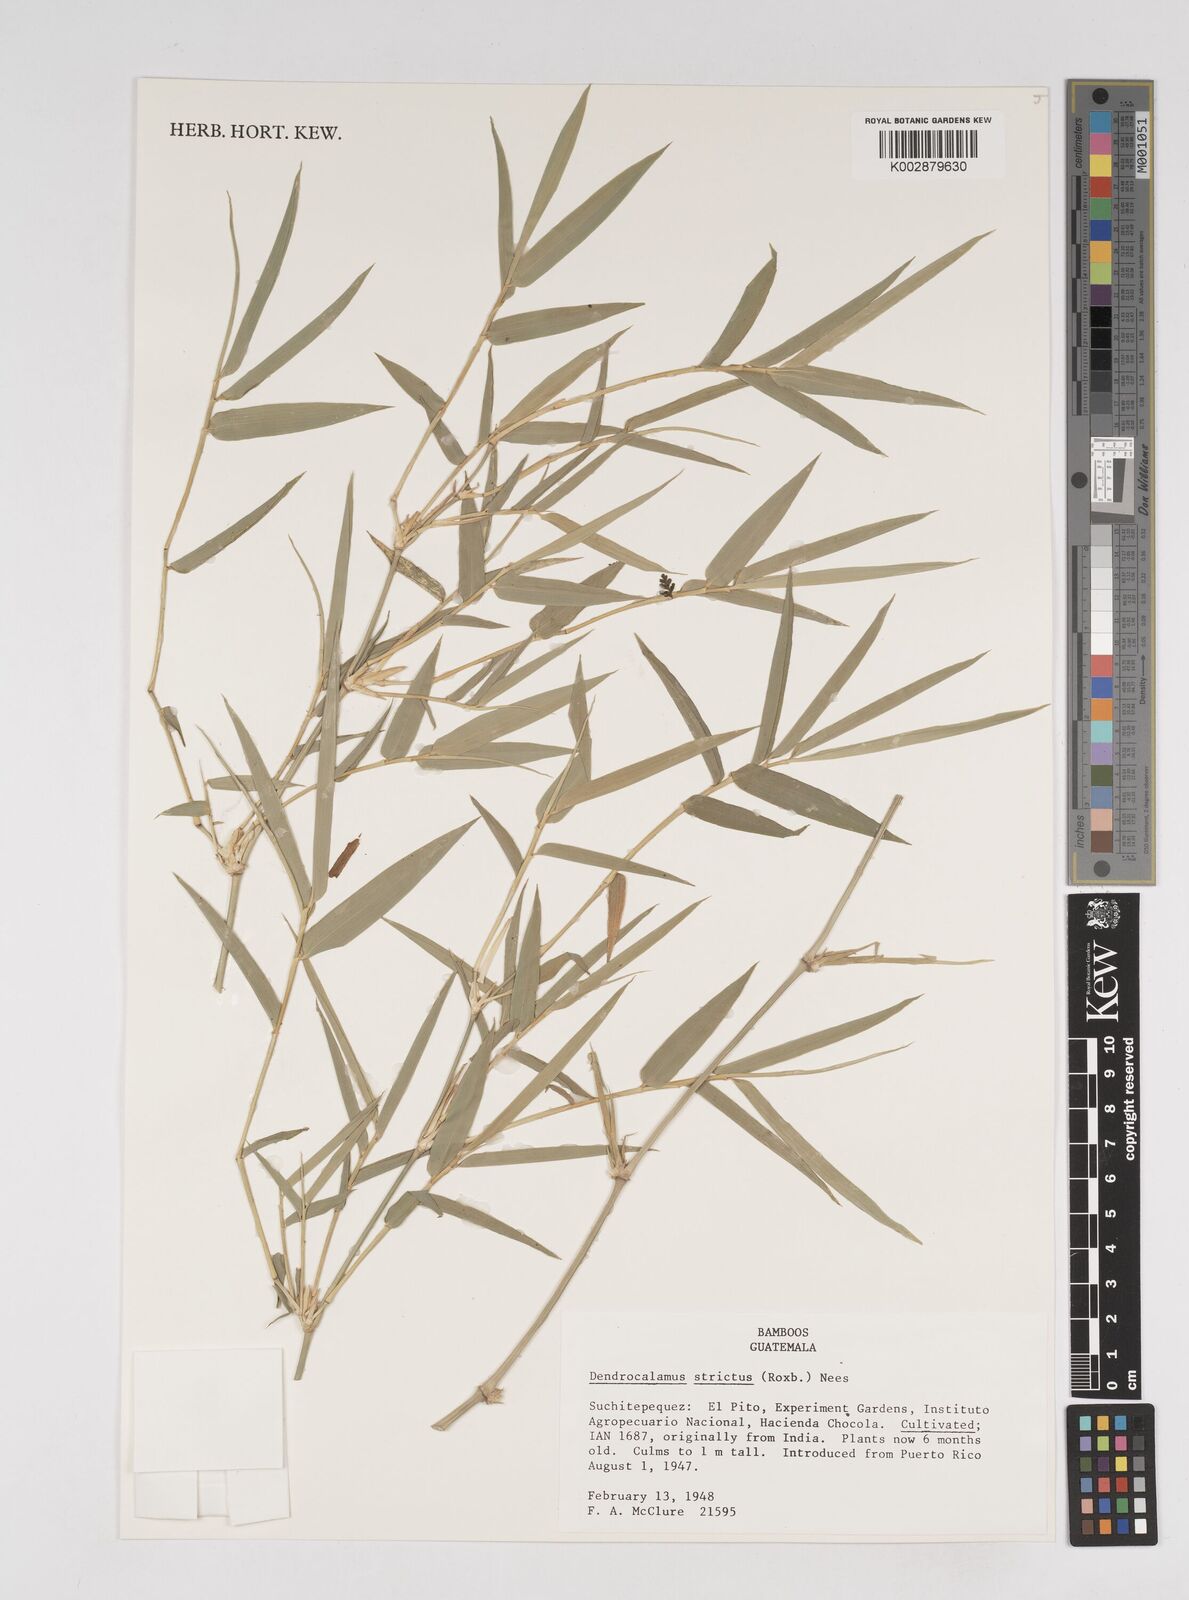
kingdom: Plantae
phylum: Tracheophyta
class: Liliopsida
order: Poales
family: Poaceae
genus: Dendrocalamus
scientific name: Dendrocalamus strictus
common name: Male bamboo
